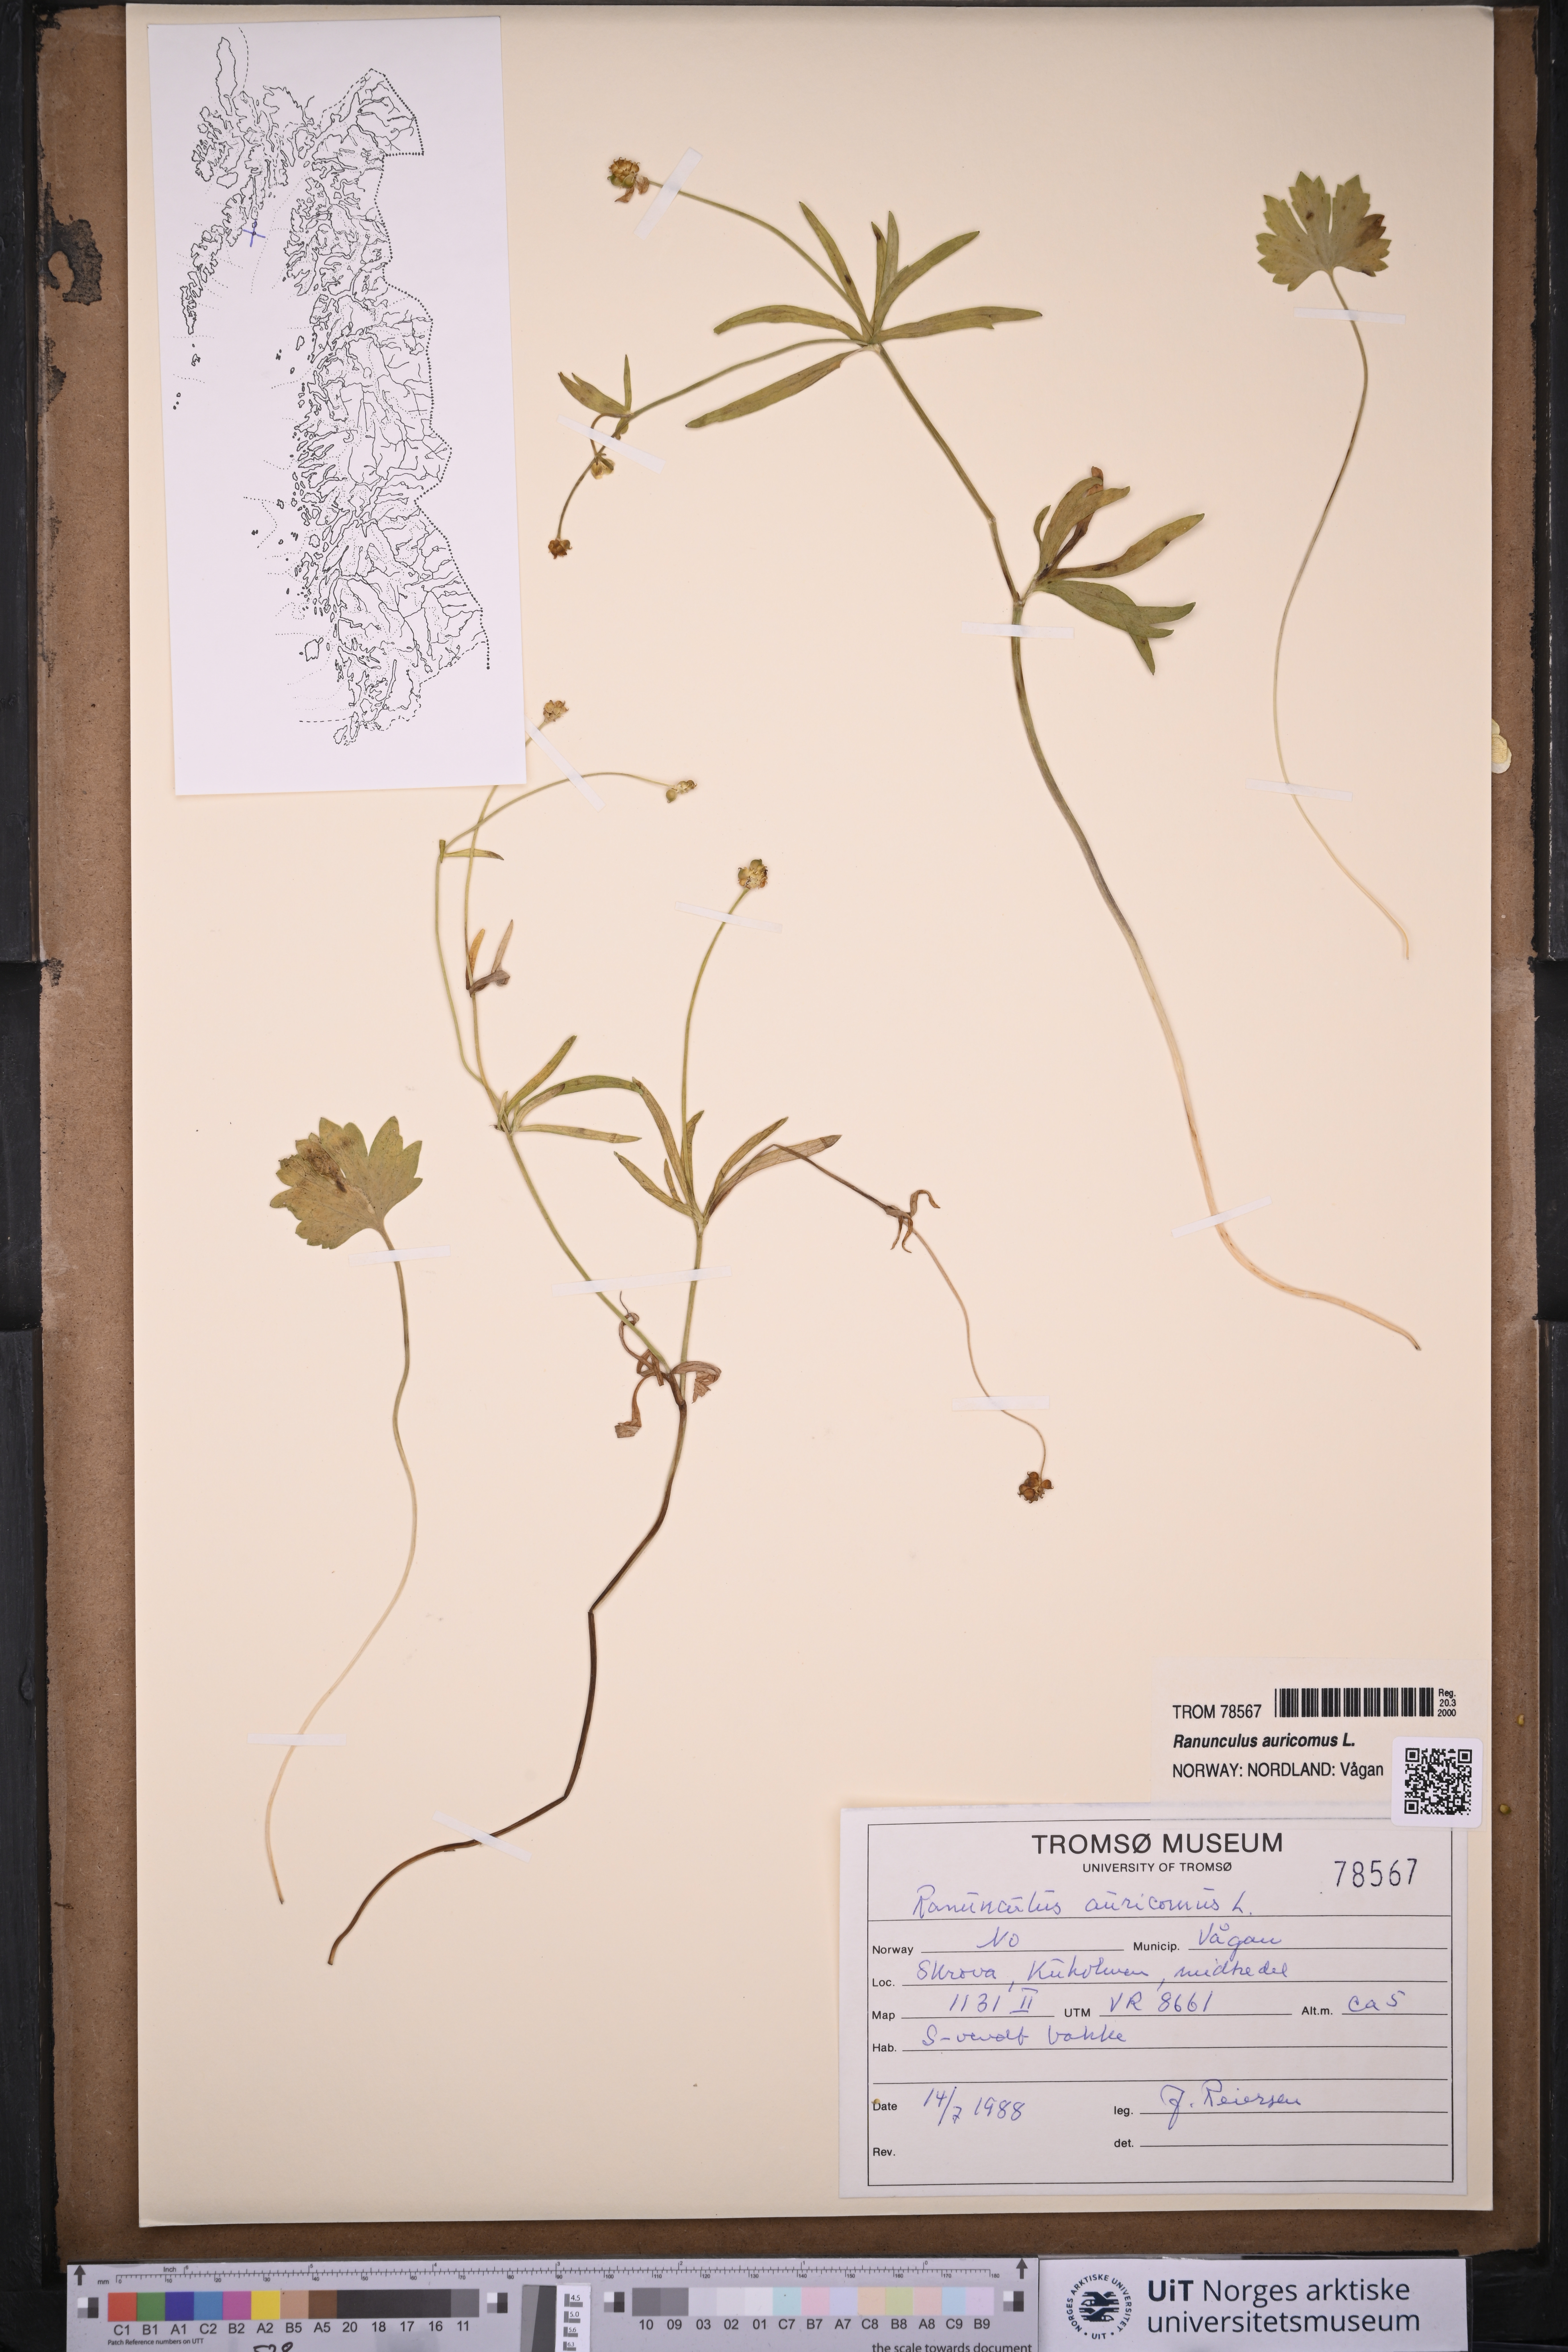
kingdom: Plantae
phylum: Tracheophyta
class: Magnoliopsida
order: Ranunculales
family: Ranunculaceae
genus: Ranunculus
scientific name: Ranunculus auricomus
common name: Goldilocks buttercup
